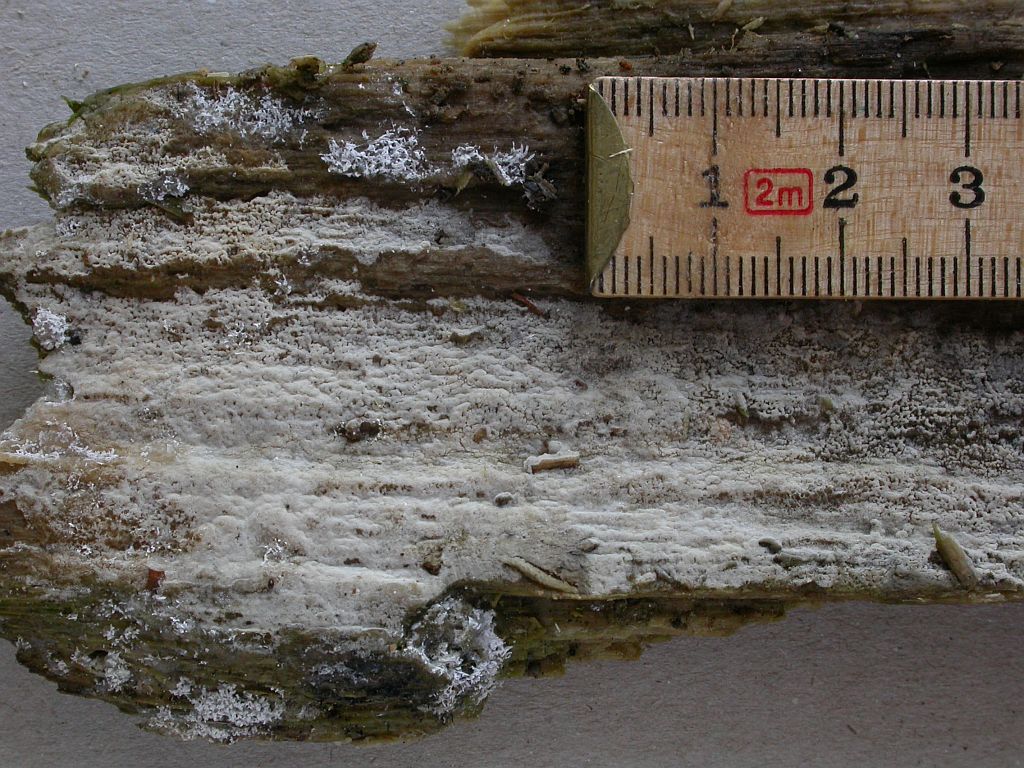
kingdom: Fungi
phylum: Basidiomycota
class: Agaricomycetes
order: Cantharellales
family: Botryobasidiaceae
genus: Botryobasidium
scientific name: Botryobasidium vagum
